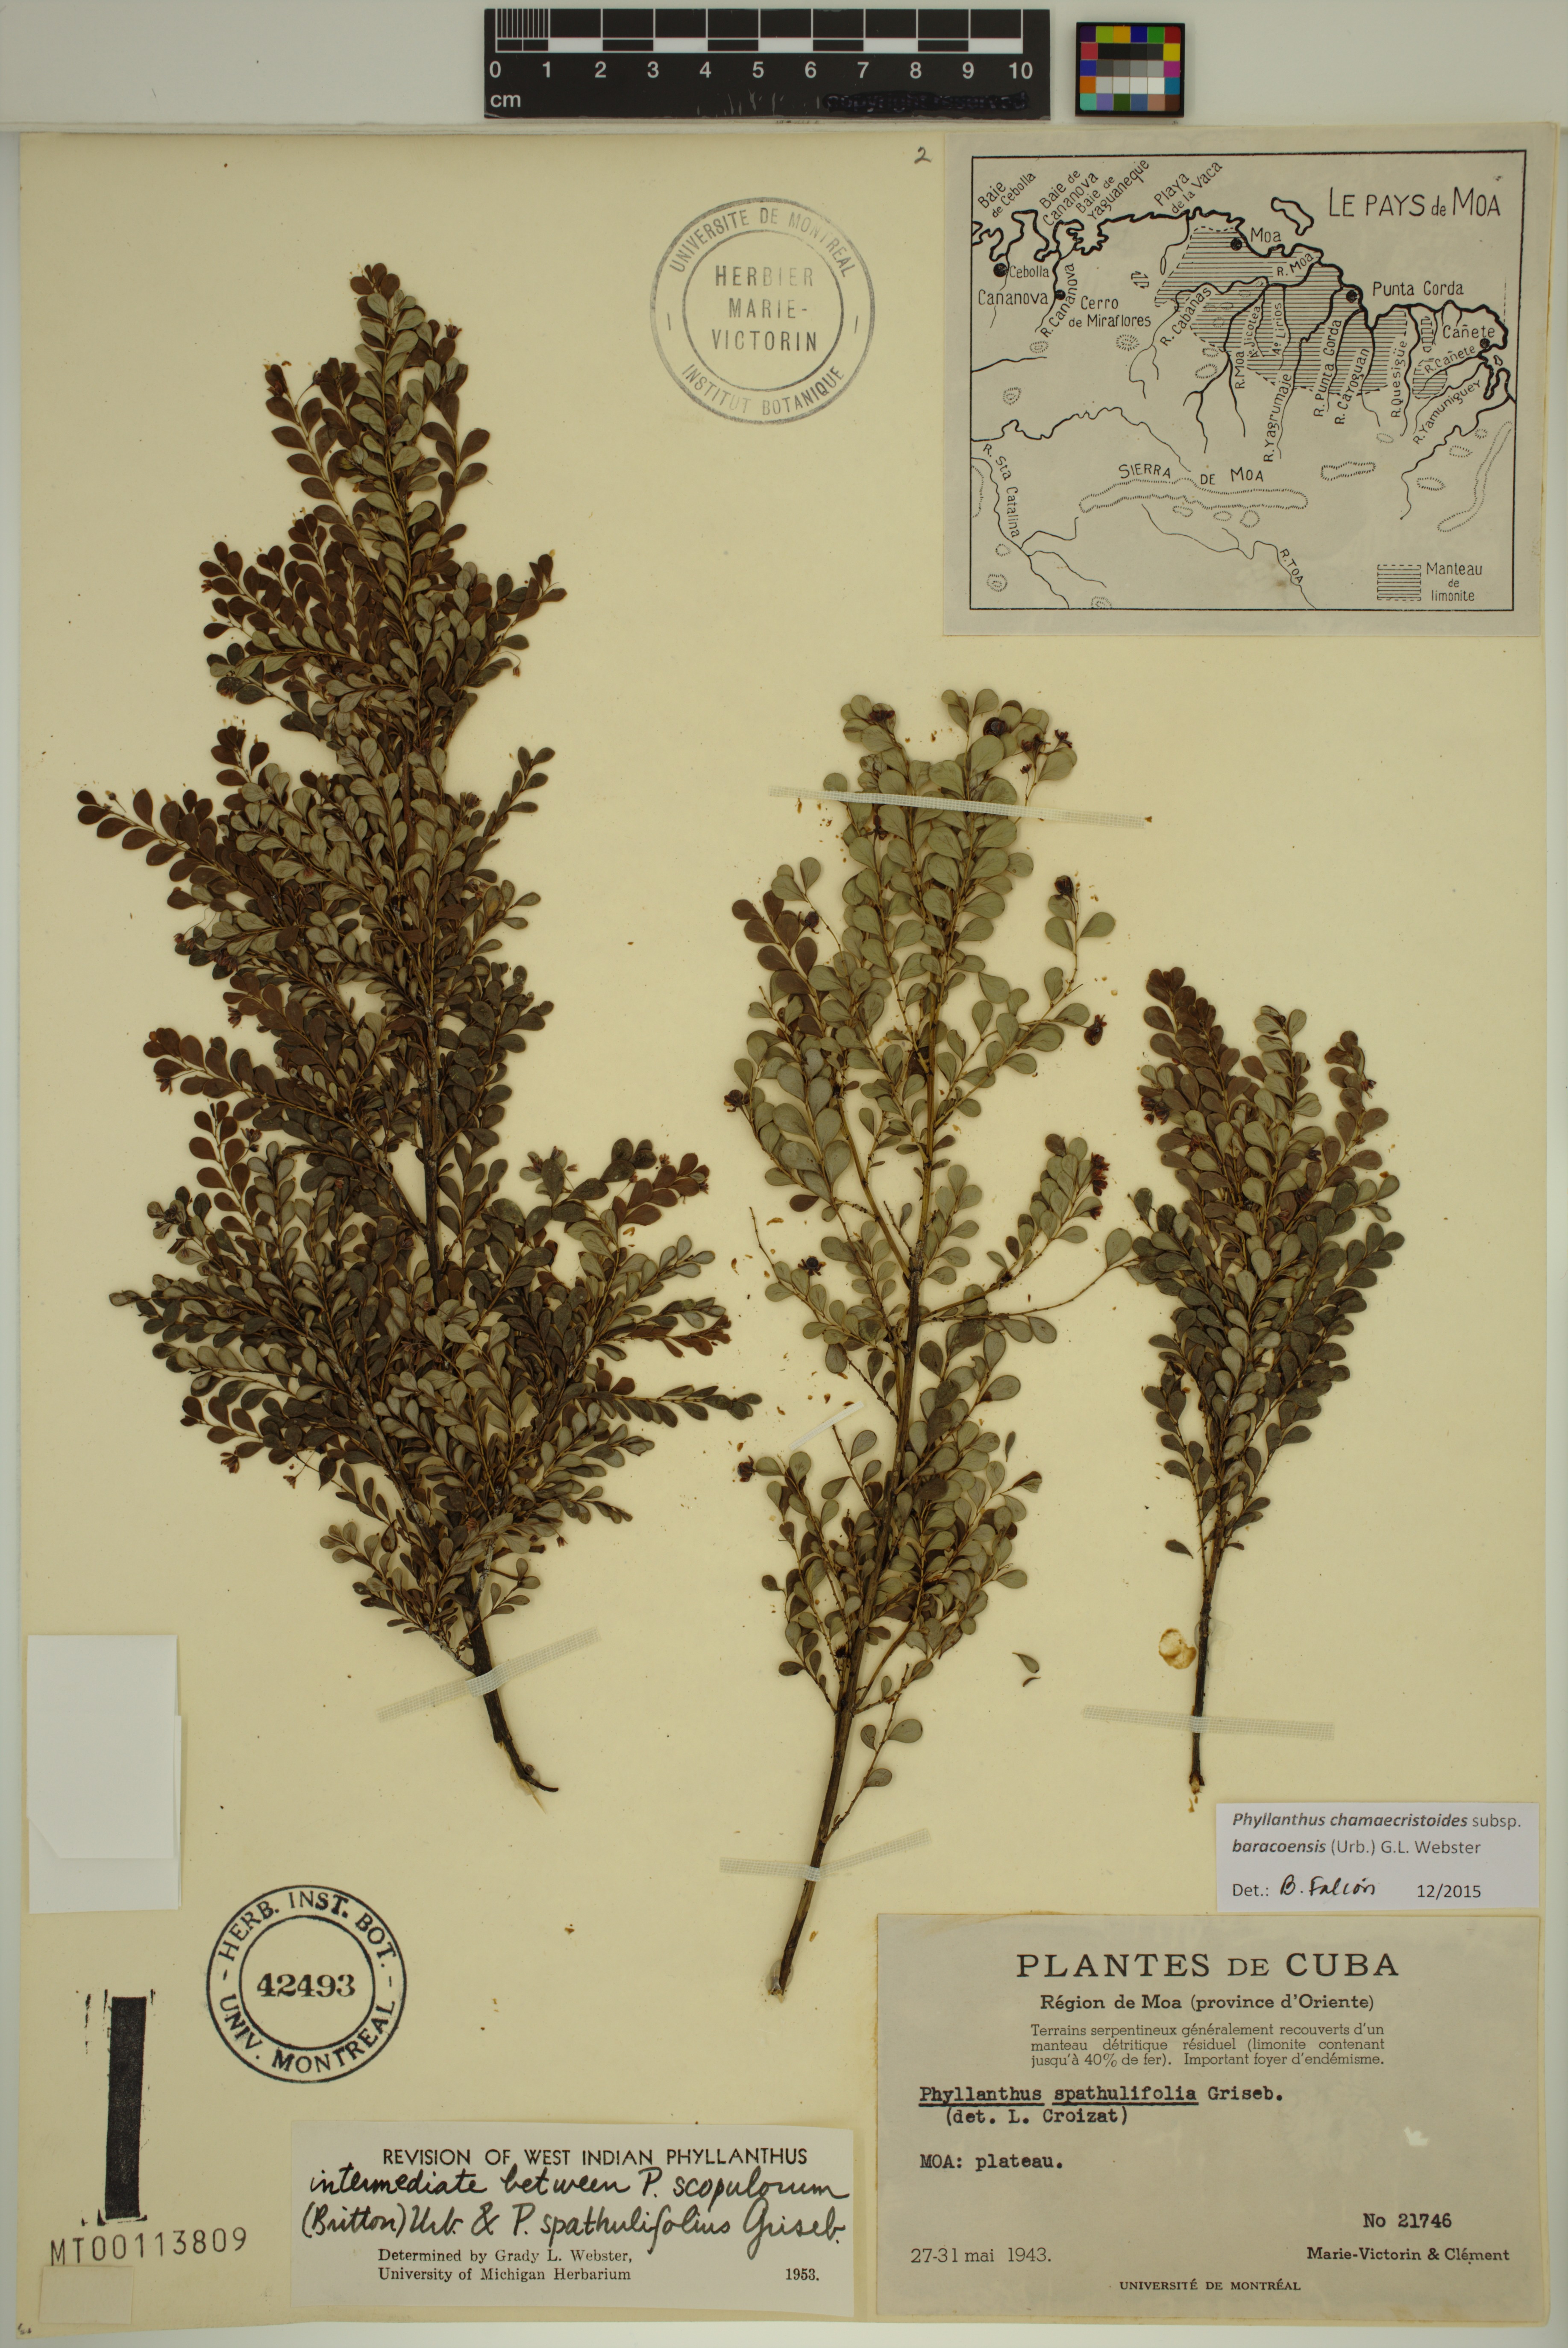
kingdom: Plantae
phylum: Tracheophyta
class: Magnoliopsida
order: Malpighiales
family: Phyllanthaceae
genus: Phyllanthus
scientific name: Phyllanthus chamaecristoides
